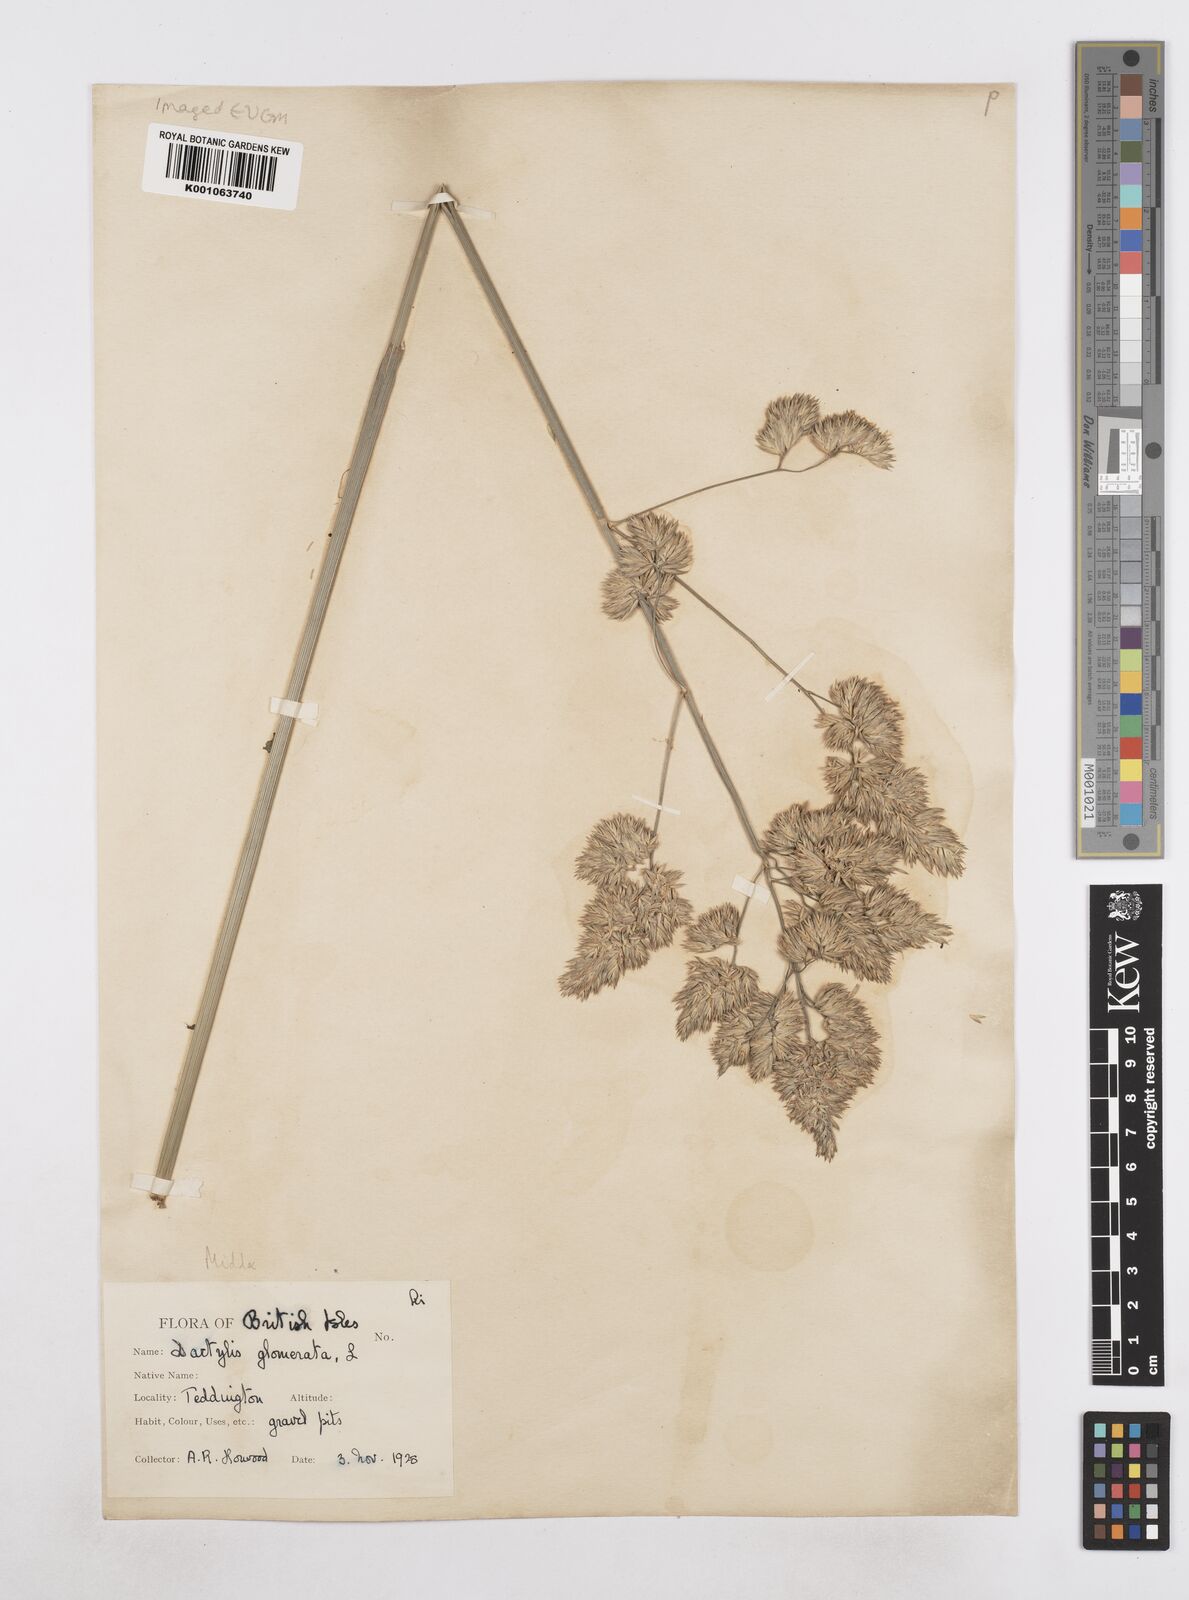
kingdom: Plantae
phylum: Tracheophyta
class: Liliopsida
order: Poales
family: Poaceae
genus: Dactylis
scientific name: Dactylis glomerata
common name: Orchardgrass
